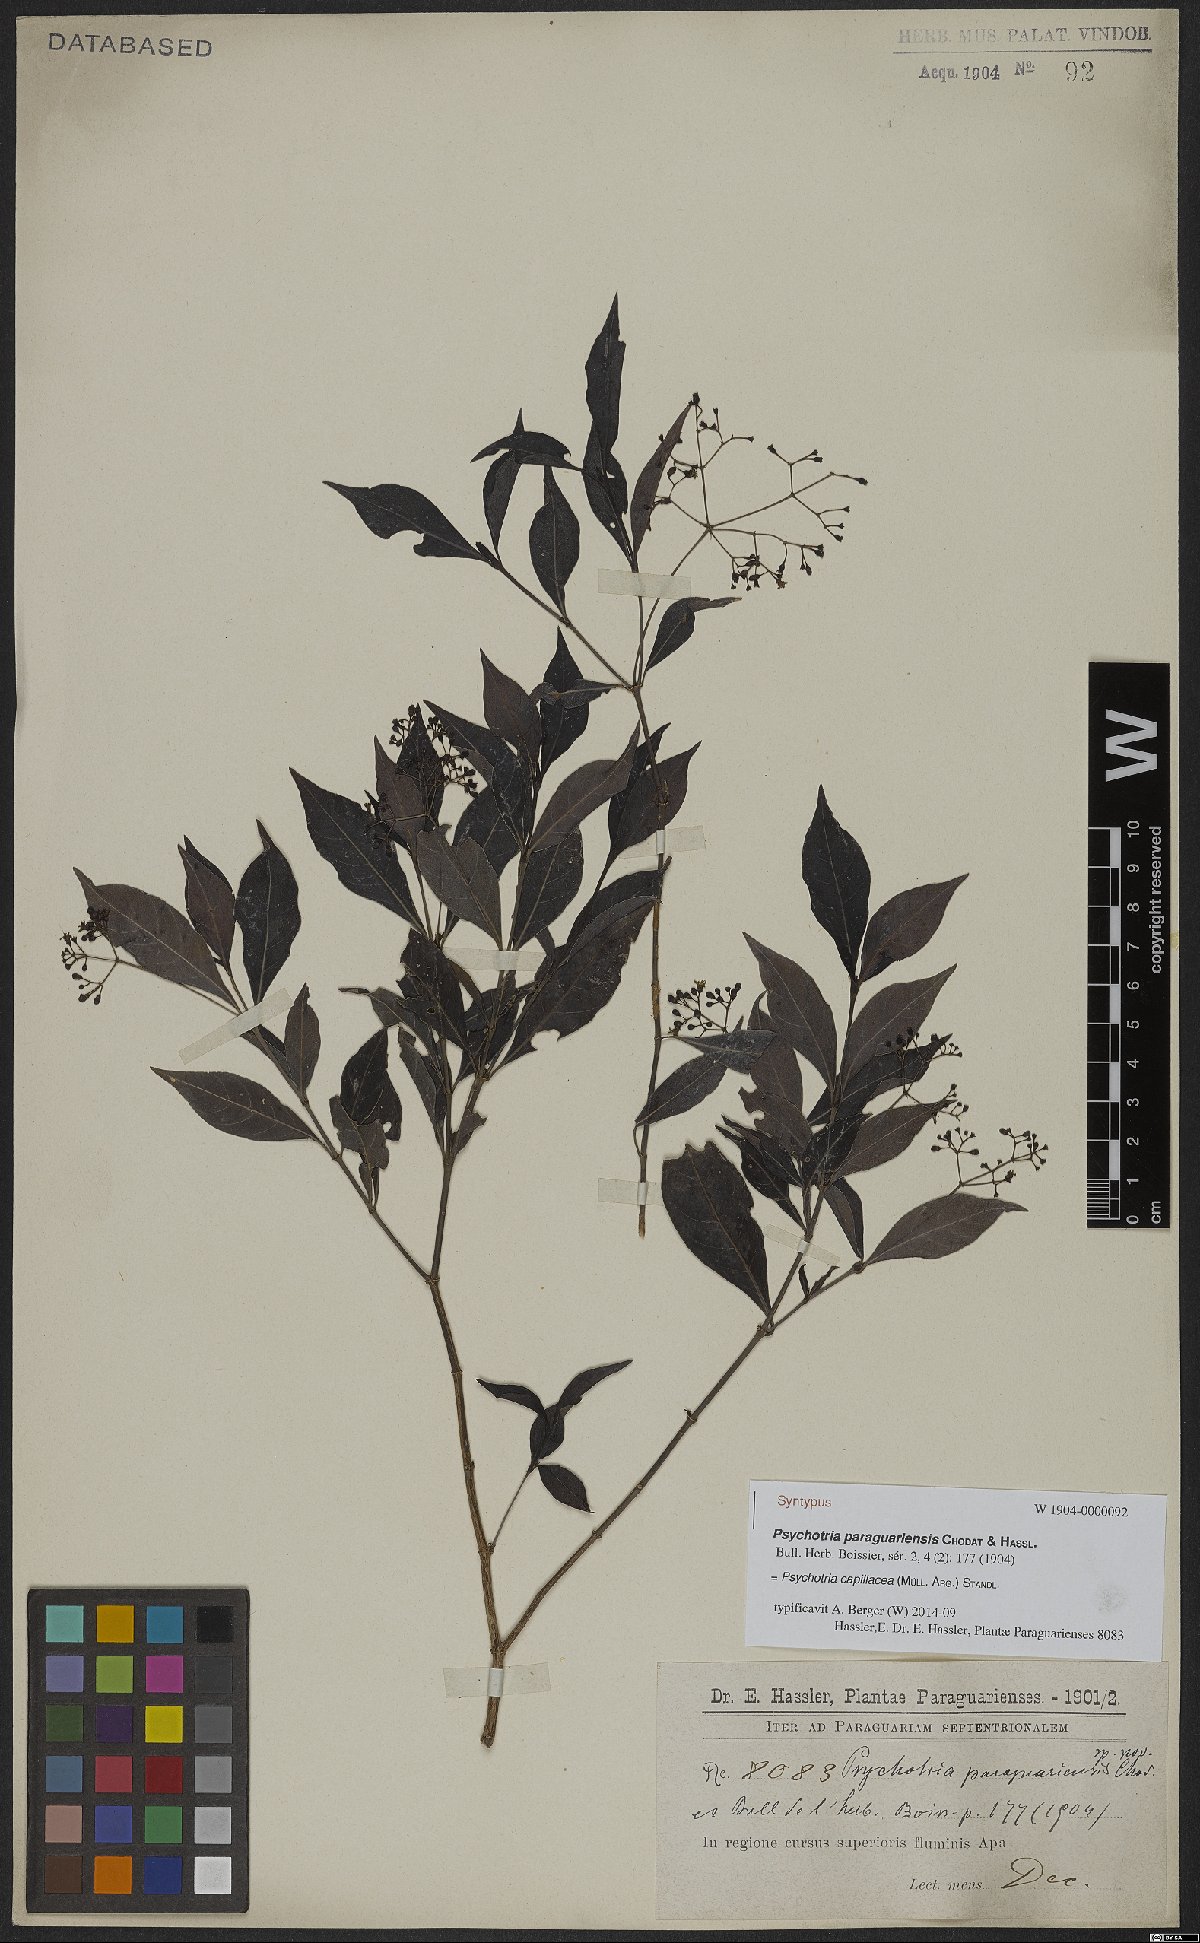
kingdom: Plantae
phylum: Tracheophyta
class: Magnoliopsida
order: Gentianales
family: Rubiaceae
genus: Psychotria
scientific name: Psychotria capillacea
